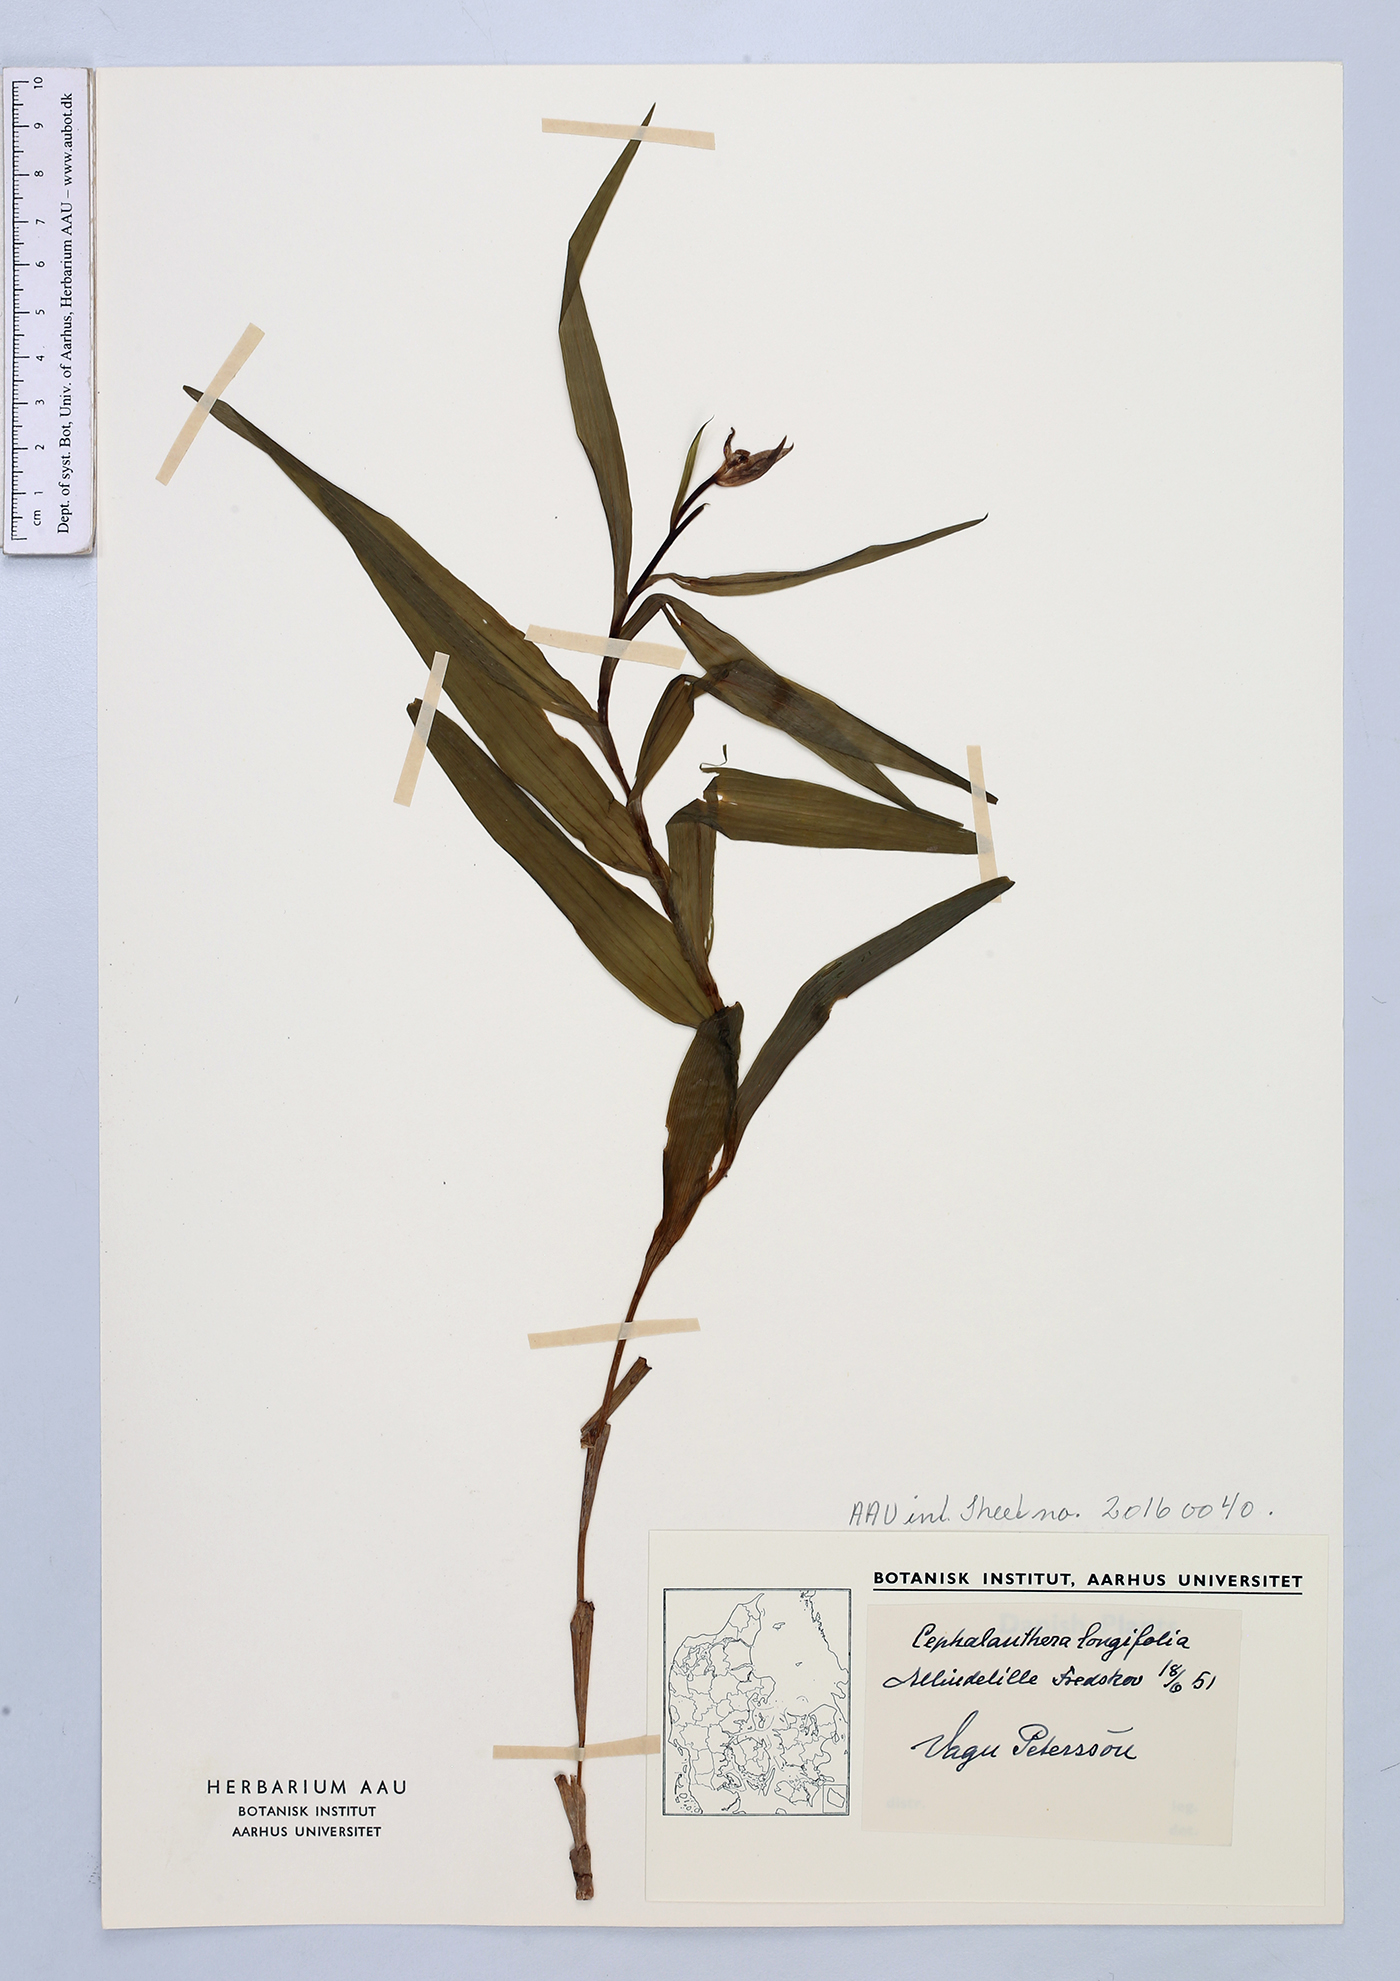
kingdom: Plantae
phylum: Tracheophyta
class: Liliopsida
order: Asparagales
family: Orchidaceae
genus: Cephalanthera
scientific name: Cephalanthera longifolia
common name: Narrow-leaved helleborine
